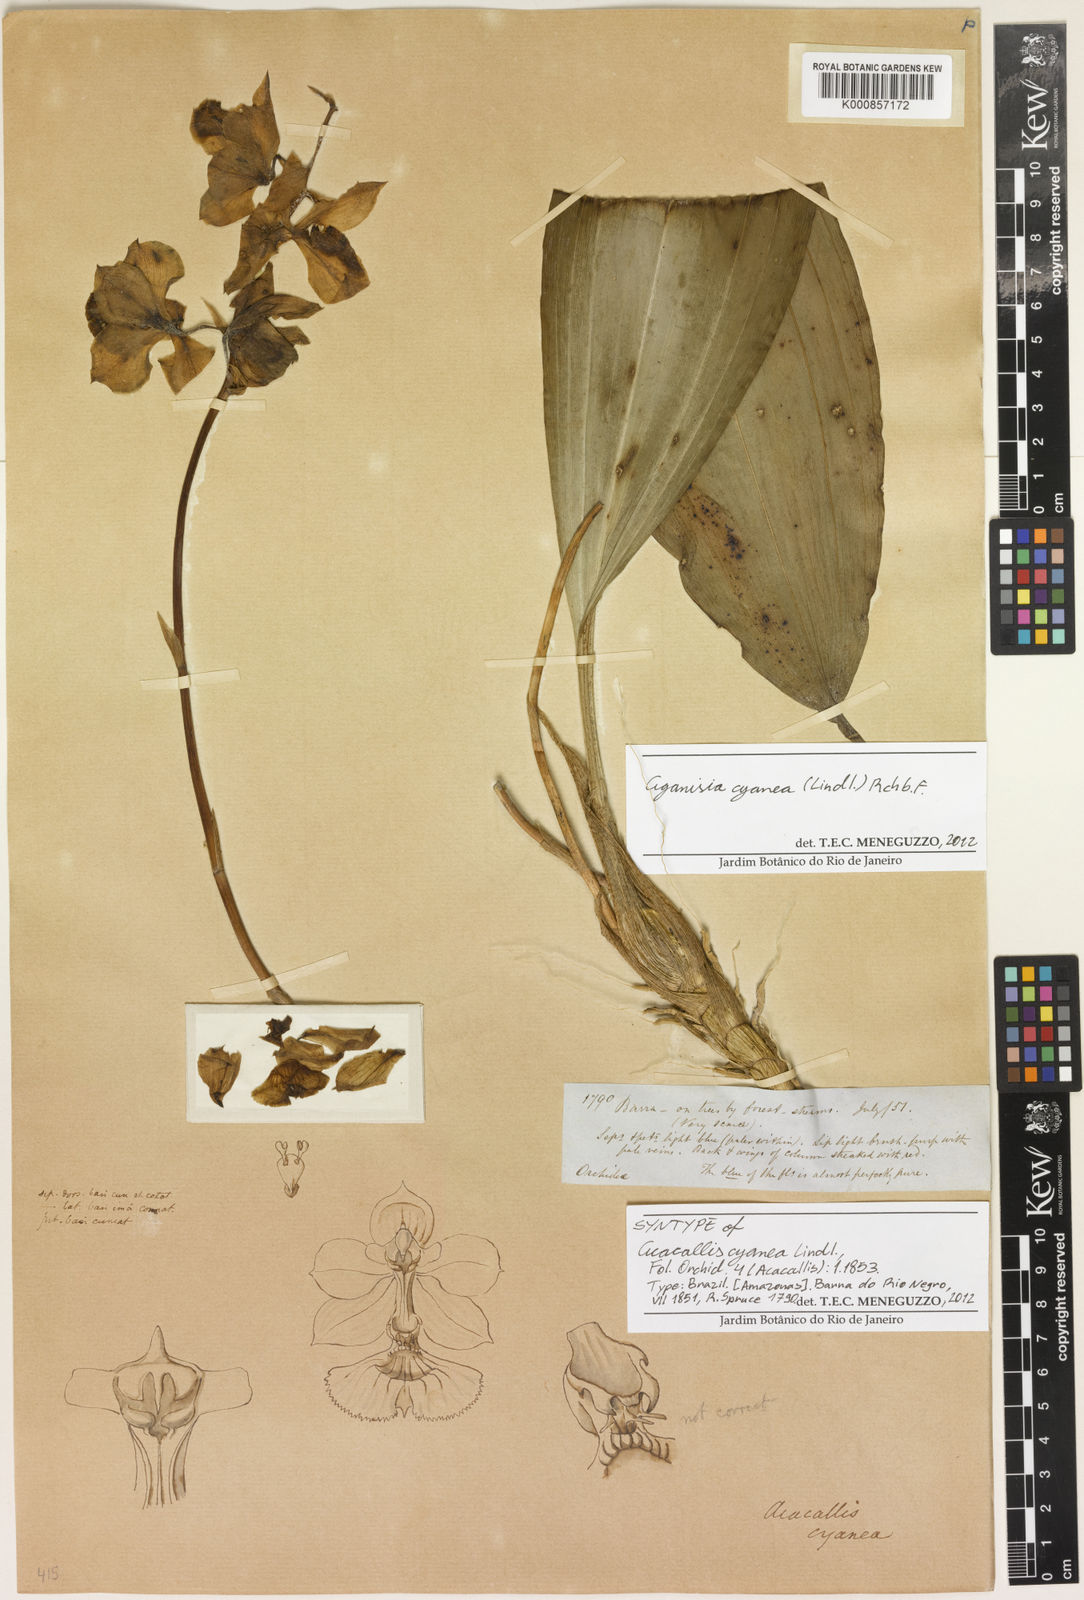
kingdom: Plantae
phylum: Tracheophyta
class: Liliopsida
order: Asparagales
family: Orchidaceae
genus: Aganisia
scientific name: Aganisia cyanea
